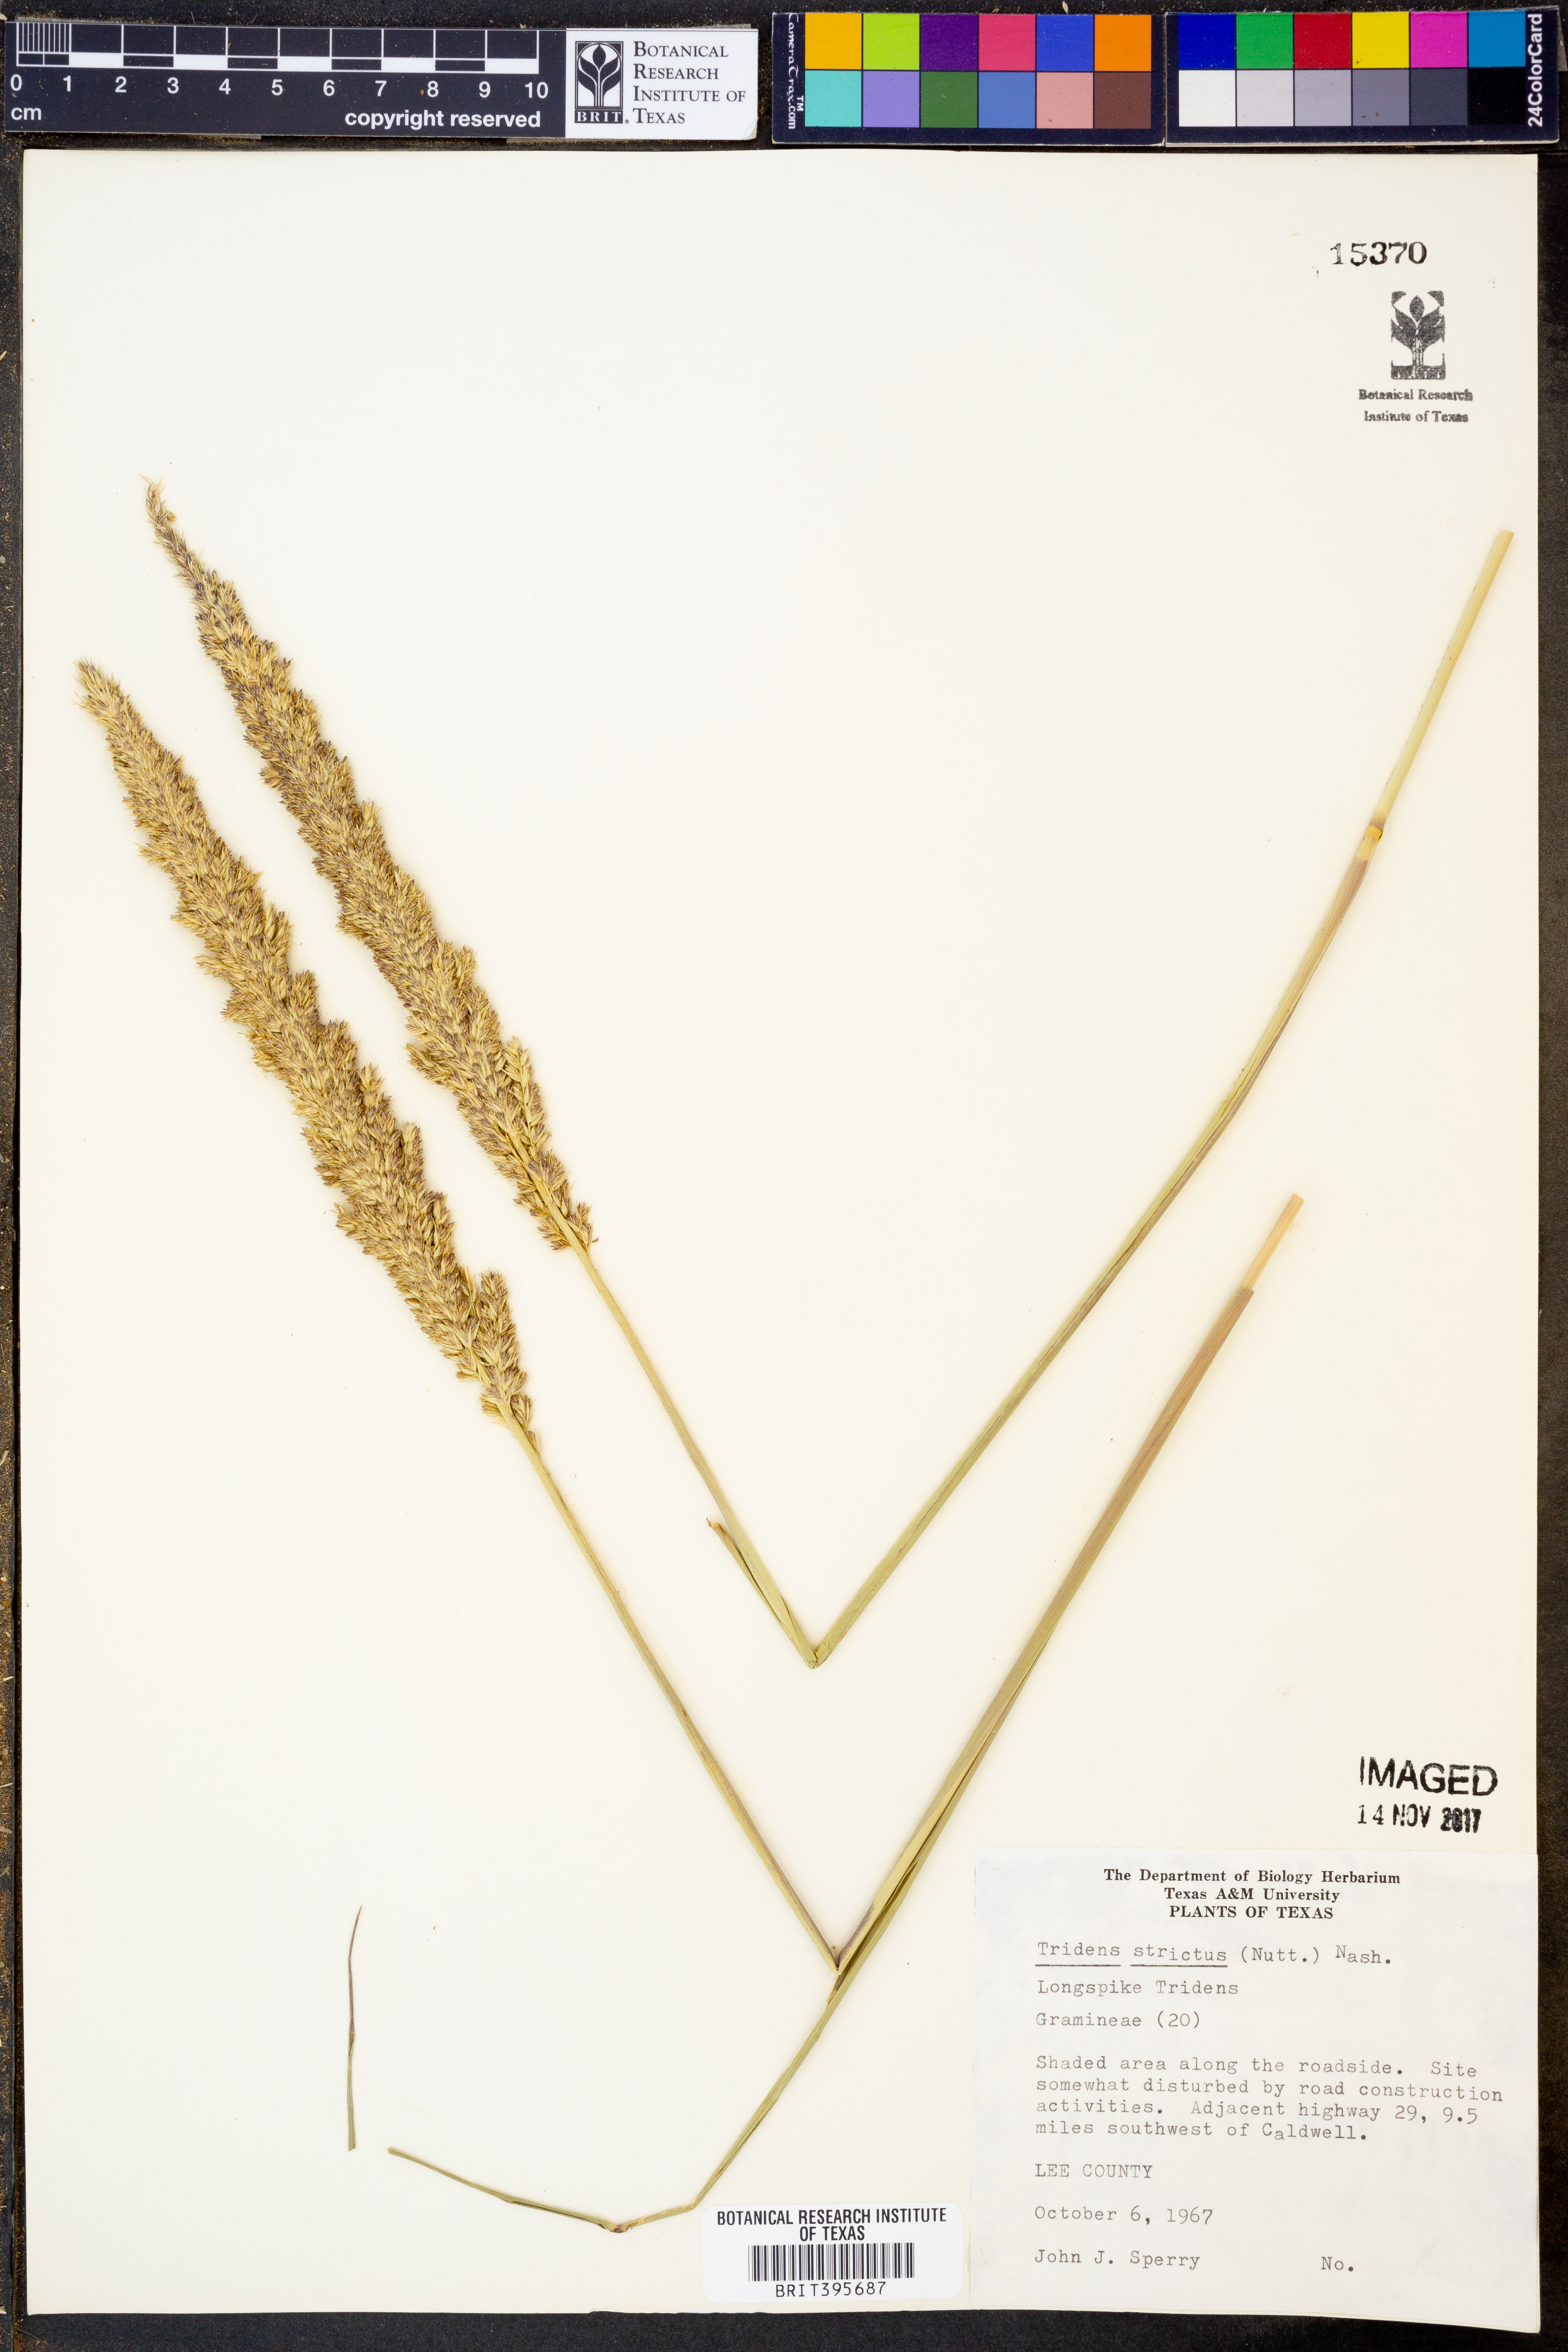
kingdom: Plantae
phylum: Tracheophyta
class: Liliopsida
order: Poales
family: Poaceae
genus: Tridens
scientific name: Tridens strictus
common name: Long-spike tridens
